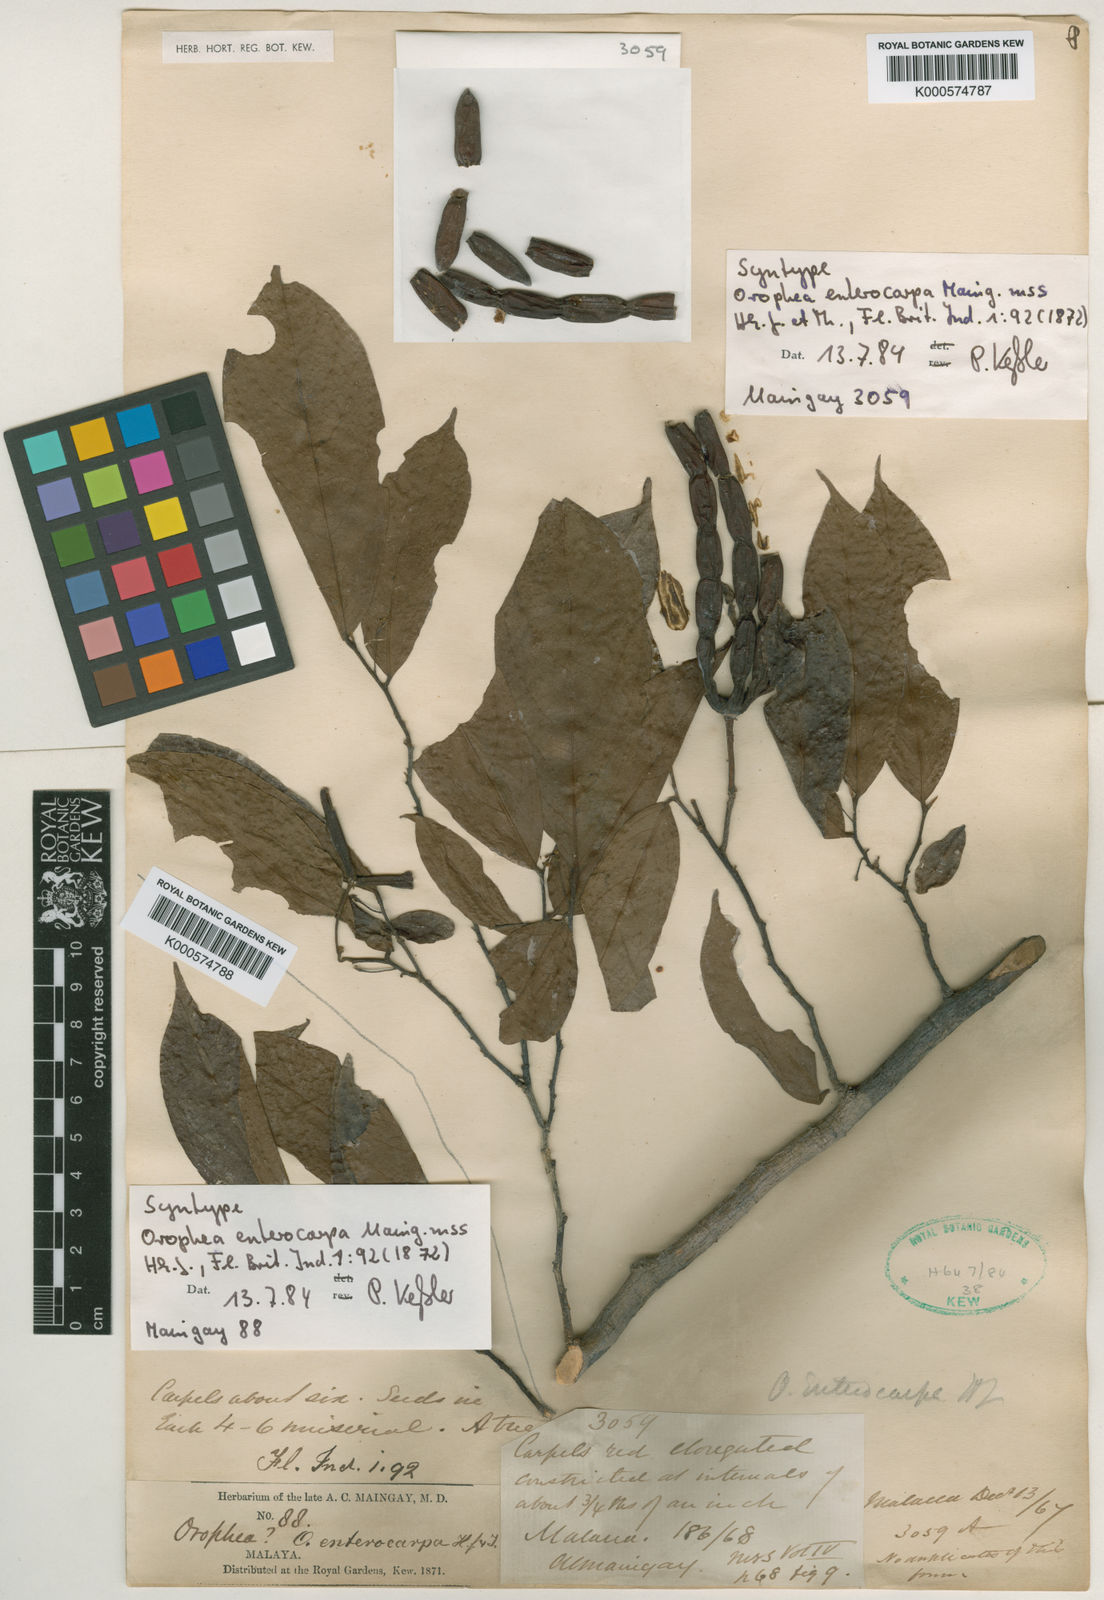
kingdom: Plantae
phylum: Tracheophyta
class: Magnoliopsida
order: Magnoliales
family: Annonaceae
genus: Orophea
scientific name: Orophea enterocarpa
